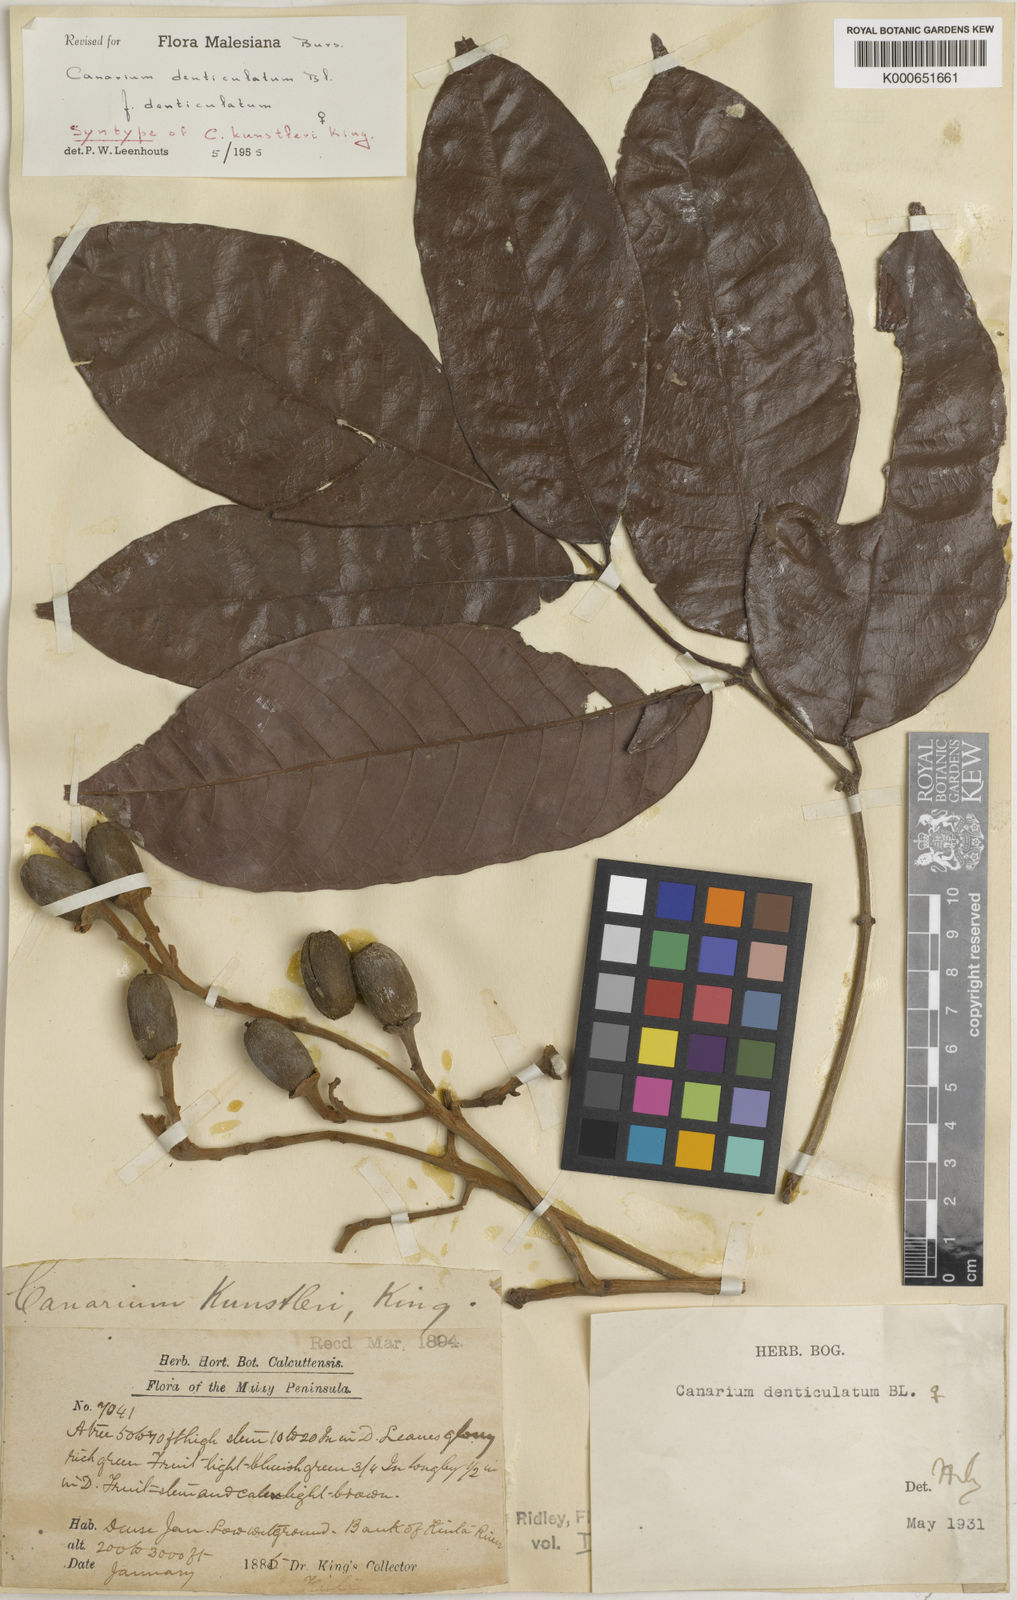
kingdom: Plantae
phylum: Tracheophyta
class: Magnoliopsida
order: Sapindales
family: Burseraceae
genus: Canarium
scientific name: Canarium denticulatum
